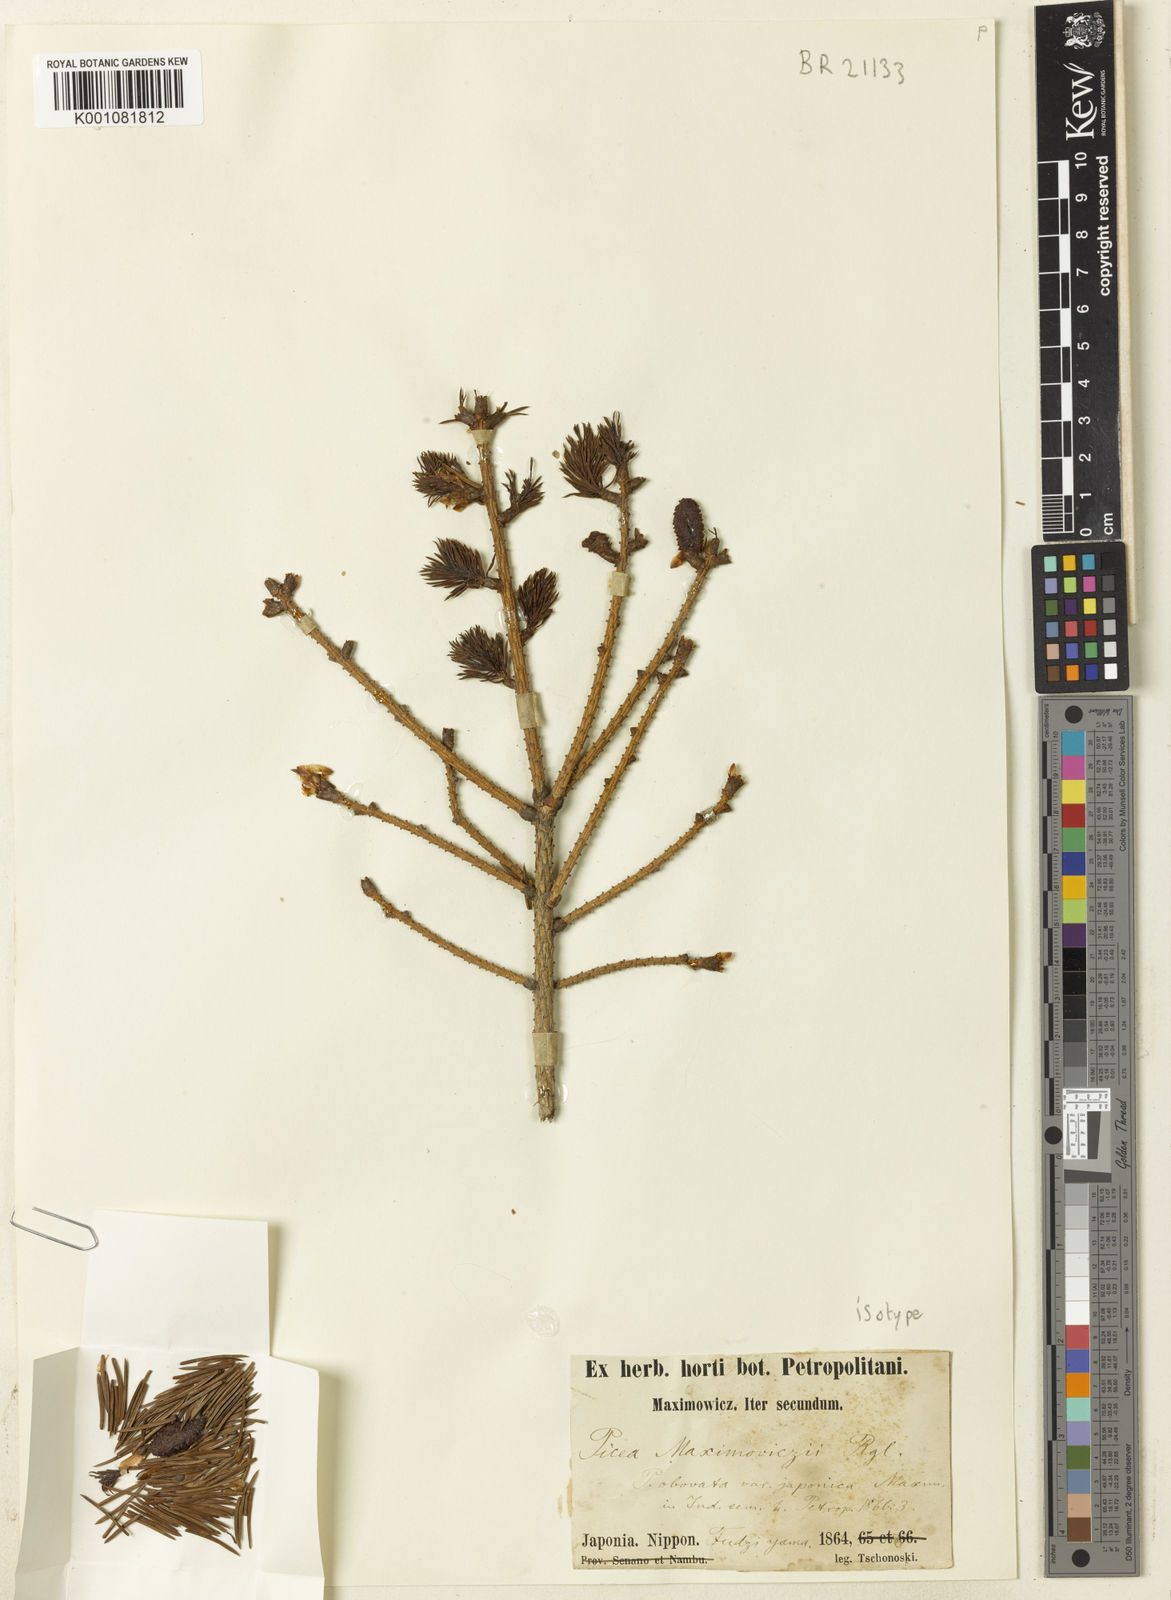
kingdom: Plantae
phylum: Tracheophyta
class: Pinopsida
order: Pinales
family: Pinaceae
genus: Picea
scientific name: Picea maximowiczii
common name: Japanese bush spruce
